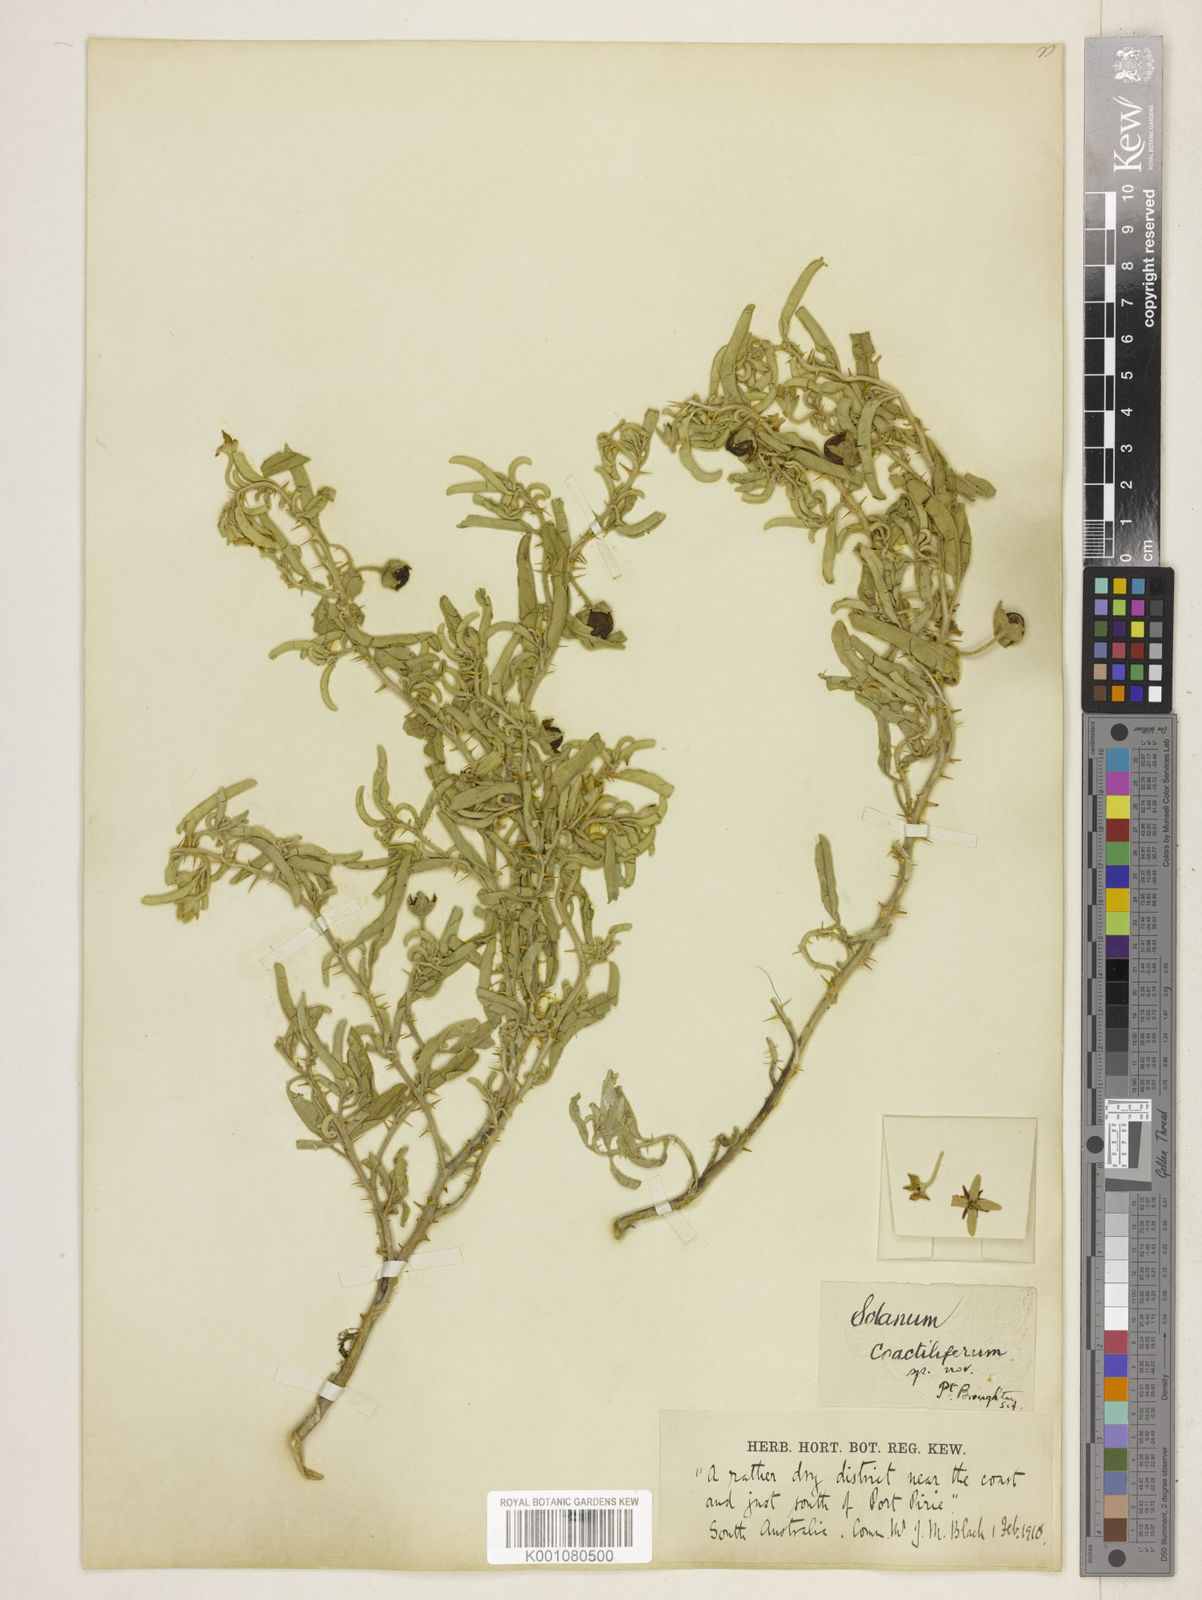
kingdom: Plantae
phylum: Tracheophyta
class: Magnoliopsida
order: Solanales
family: Solanaceae
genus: Solanum
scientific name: Solanum coactiliferum
